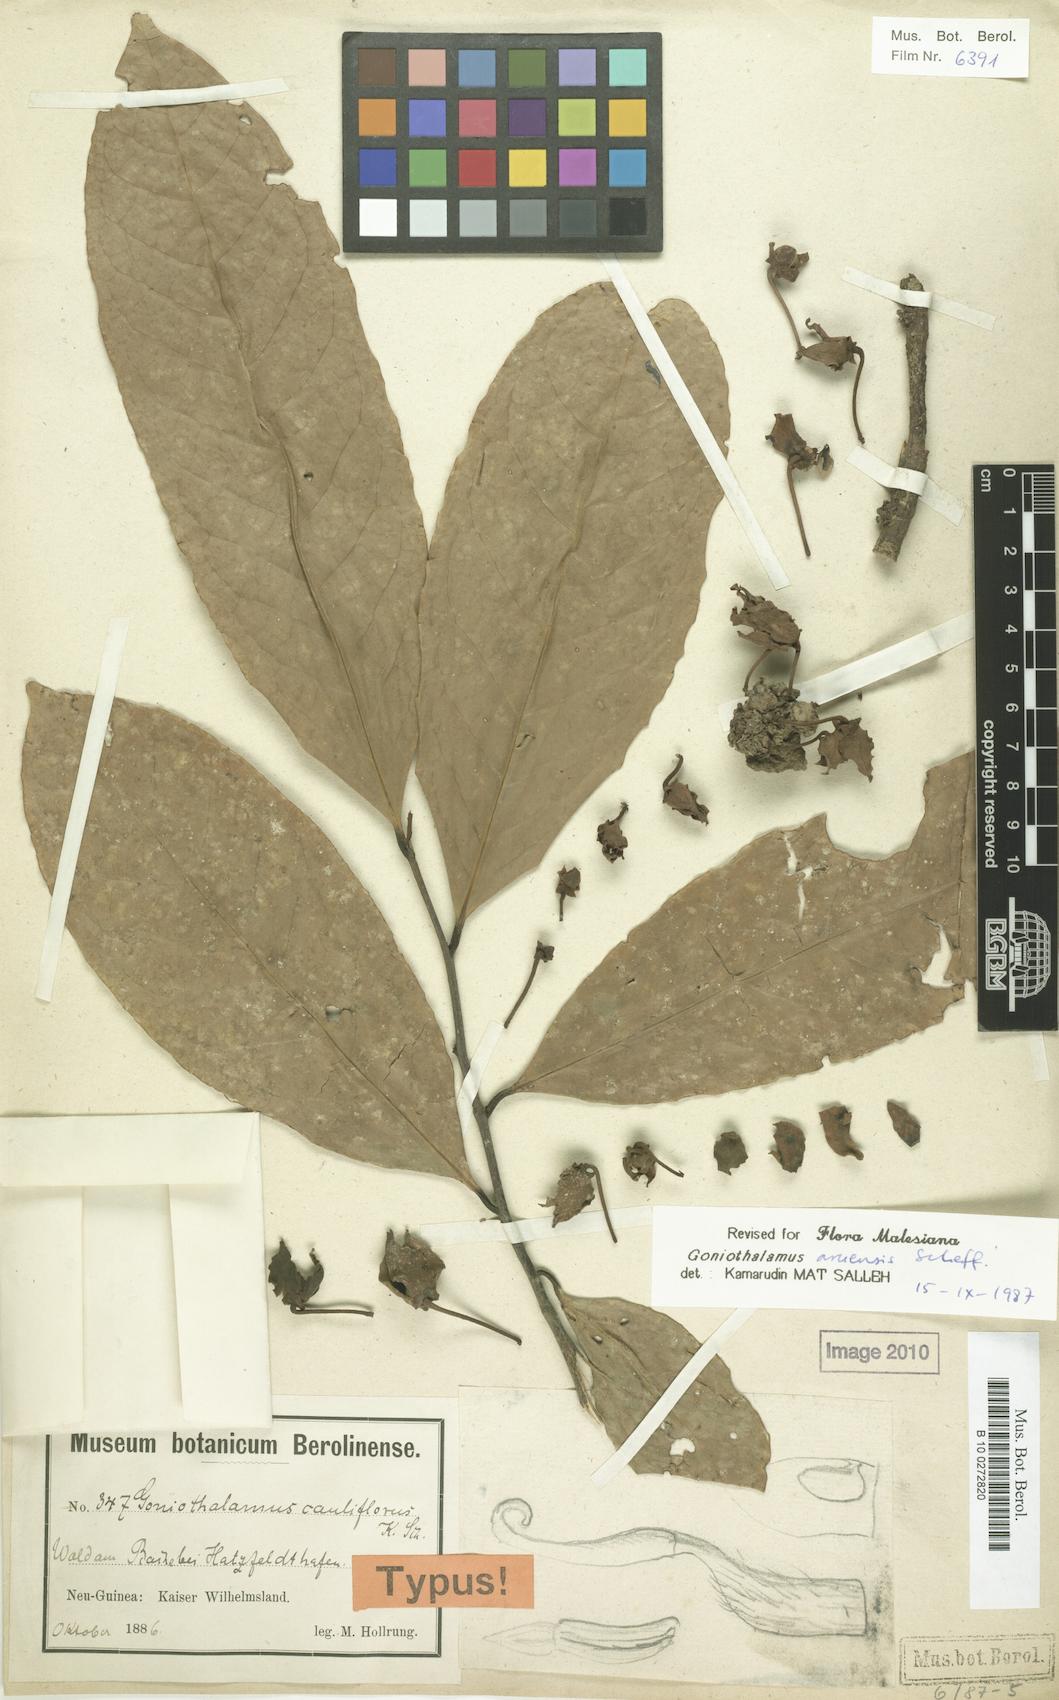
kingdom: Plantae
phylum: Tracheophyta
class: Magnoliopsida
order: Magnoliales
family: Annonaceae
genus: Goniothalamus
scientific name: Goniothalamus aruensis
